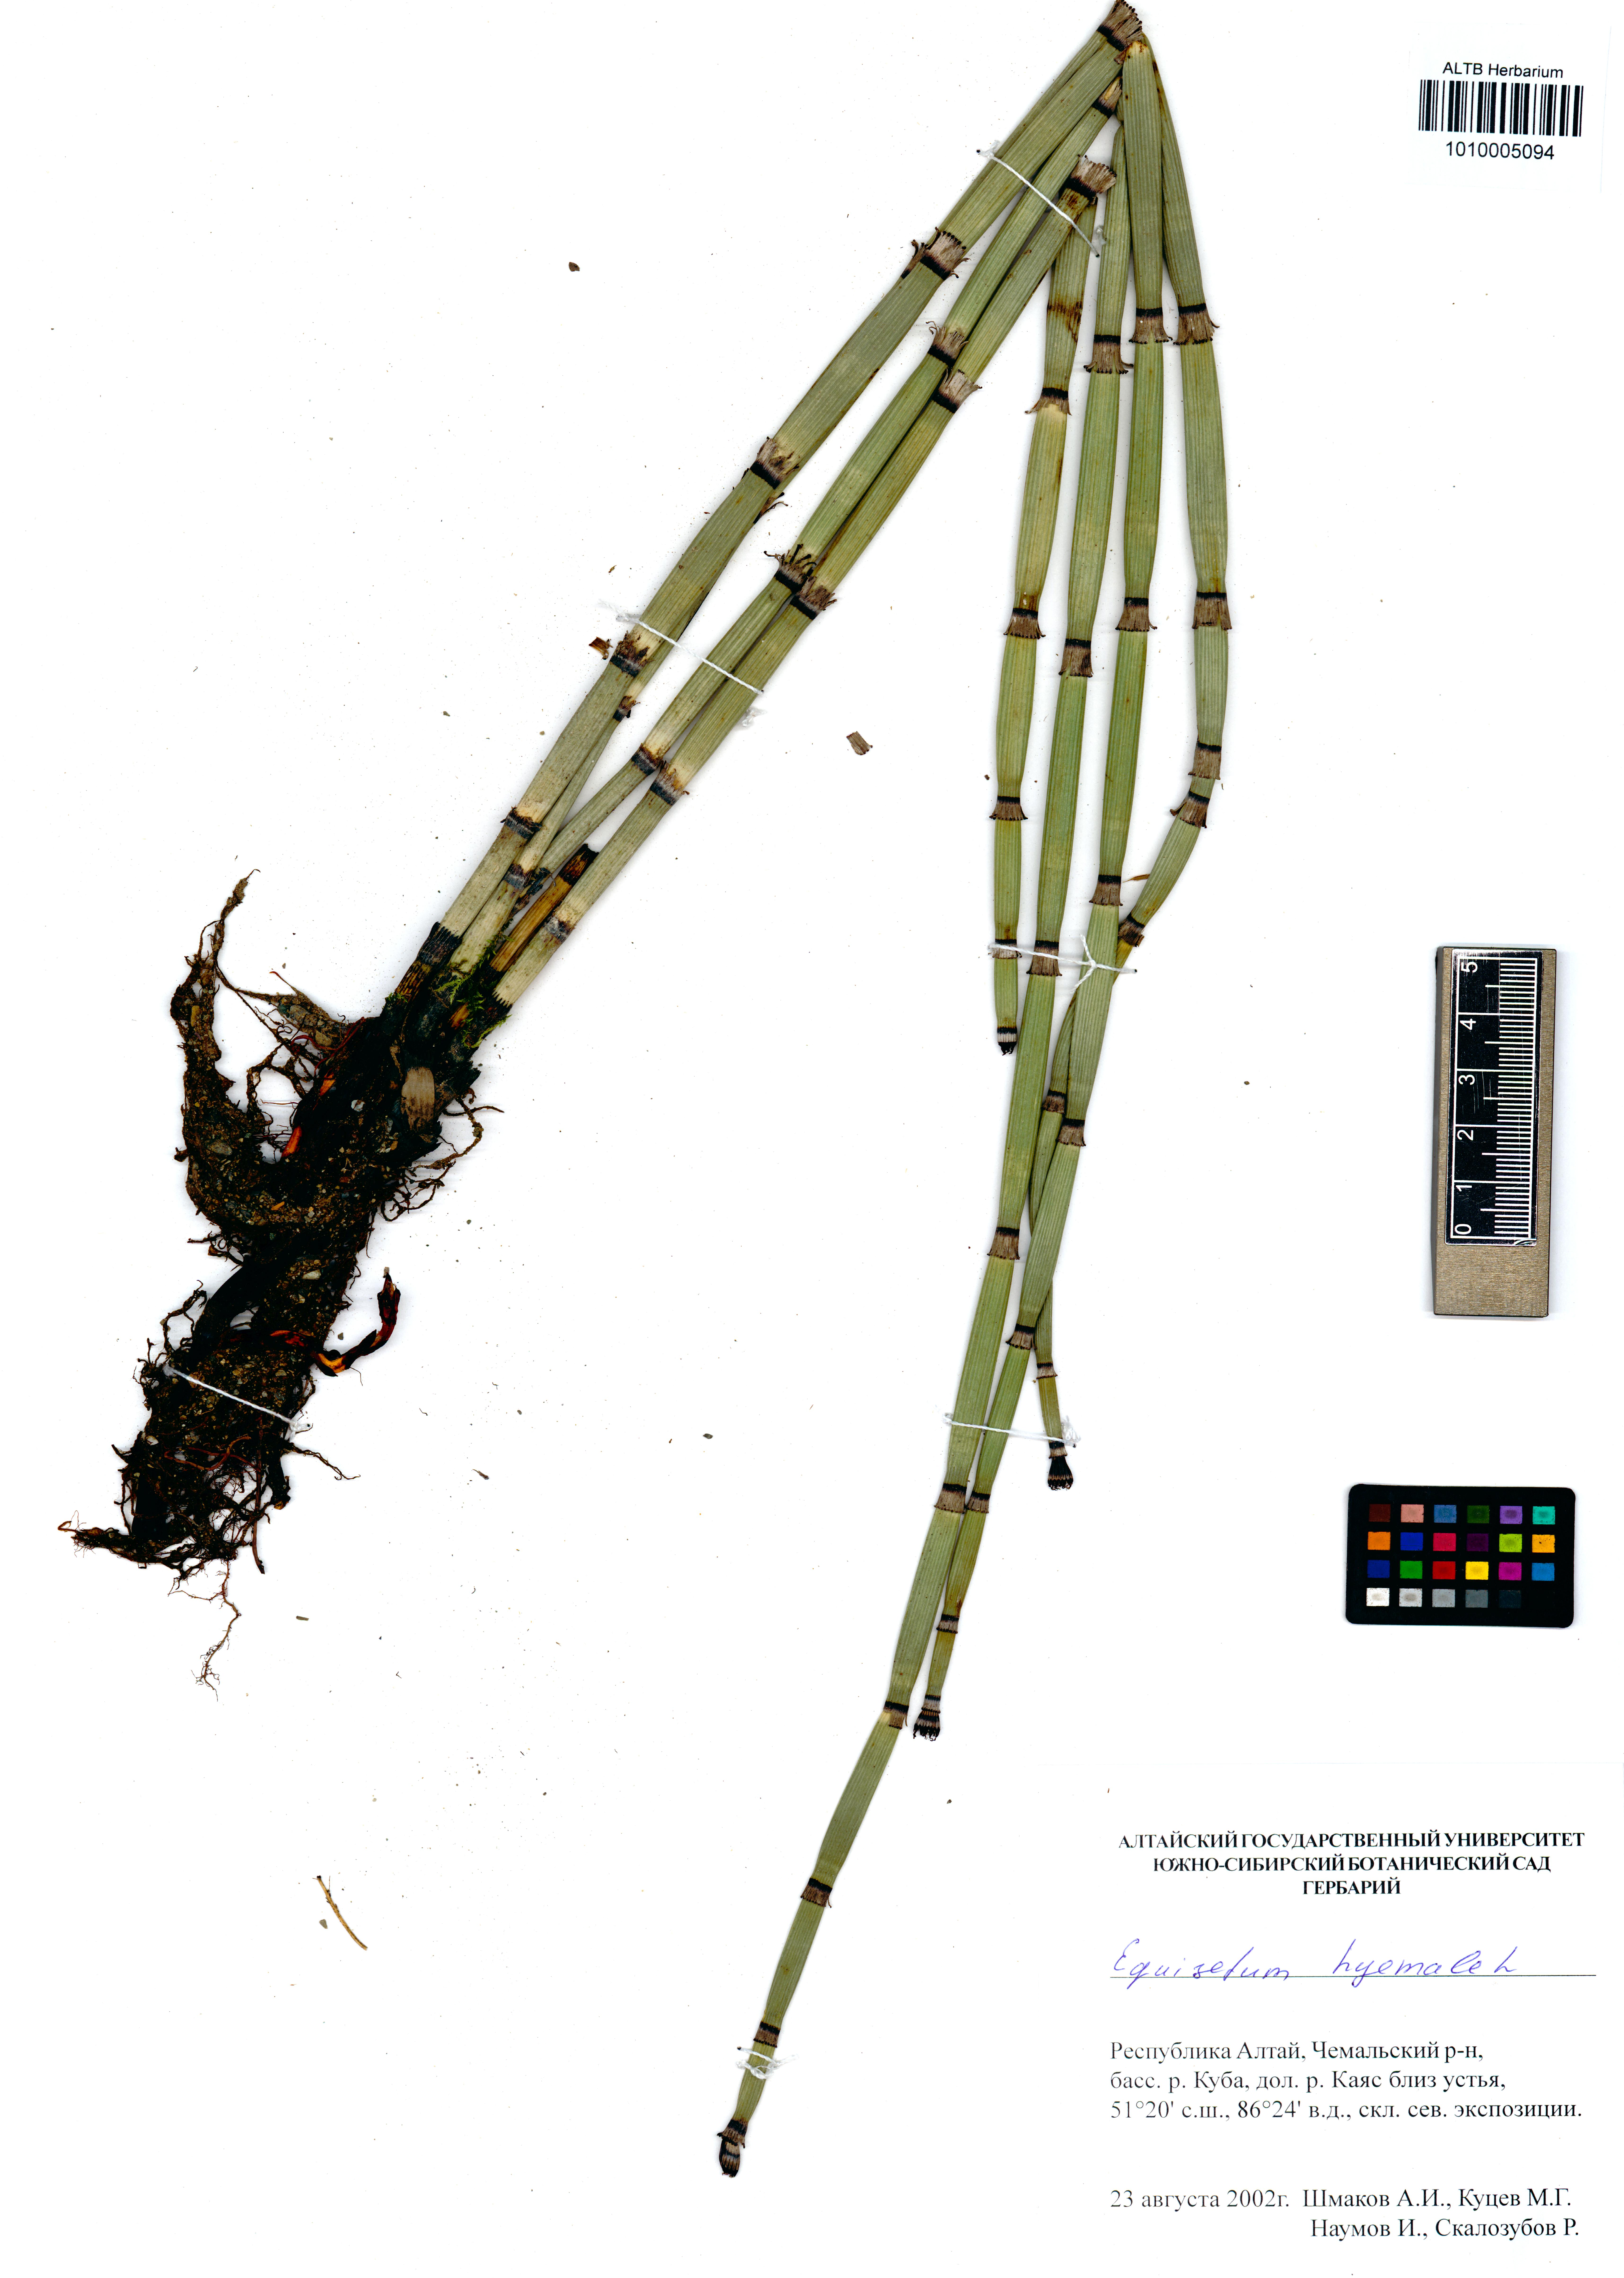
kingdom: Plantae
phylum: Tracheophyta
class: Polypodiopsida
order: Equisetales
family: Equisetaceae
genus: Equisetum
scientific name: Equisetum hyemale
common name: Rough horsetail
